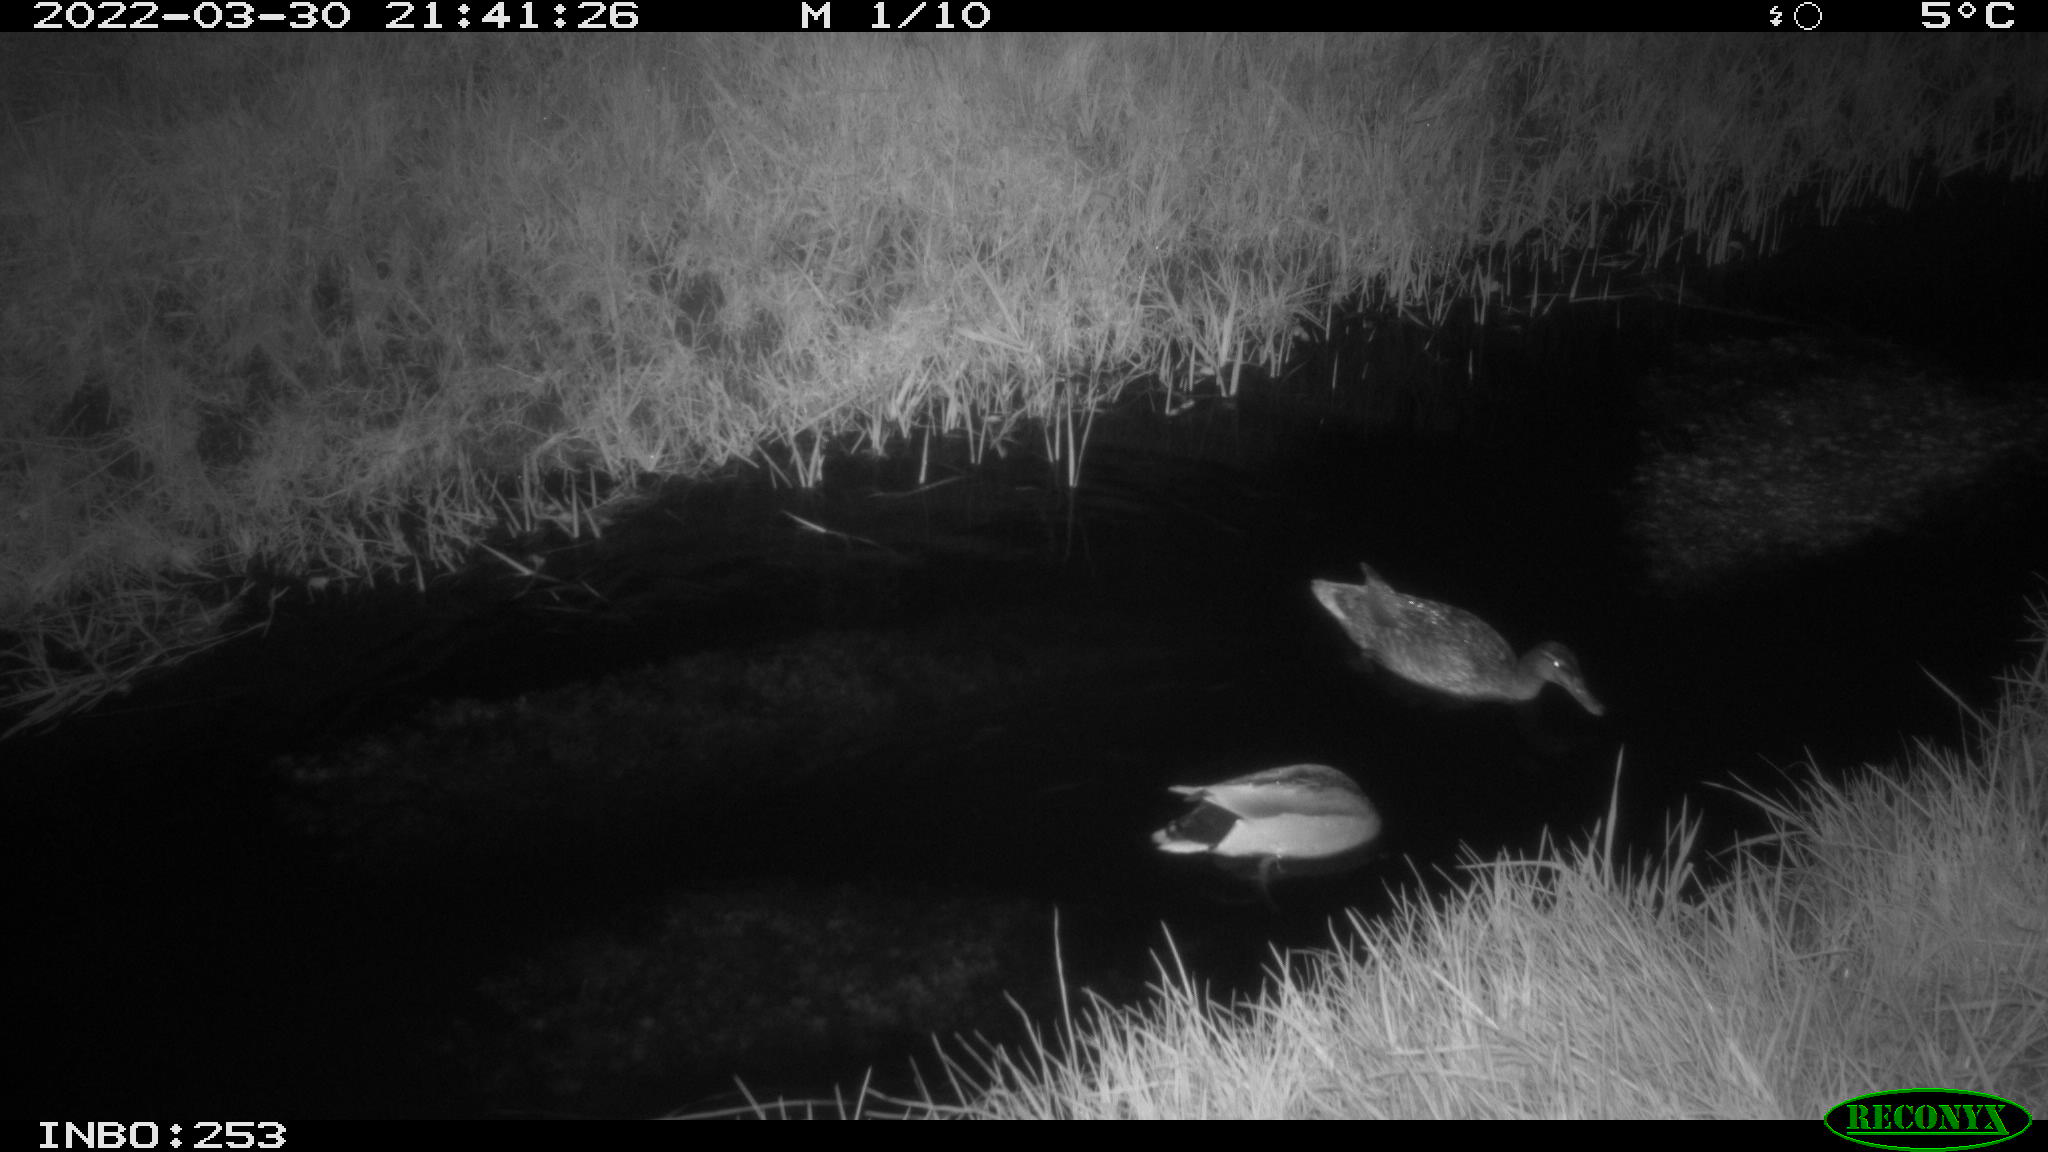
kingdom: Animalia
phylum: Chordata
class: Aves
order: Anseriformes
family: Anatidae
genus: Anas
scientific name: Anas platyrhynchos
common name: Mallard
